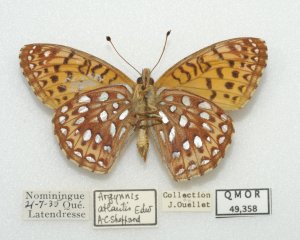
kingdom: Animalia
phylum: Arthropoda
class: Insecta
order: Lepidoptera
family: Nymphalidae
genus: Speyeria
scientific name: Speyeria atlantis
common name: Atlantis Fritillary
